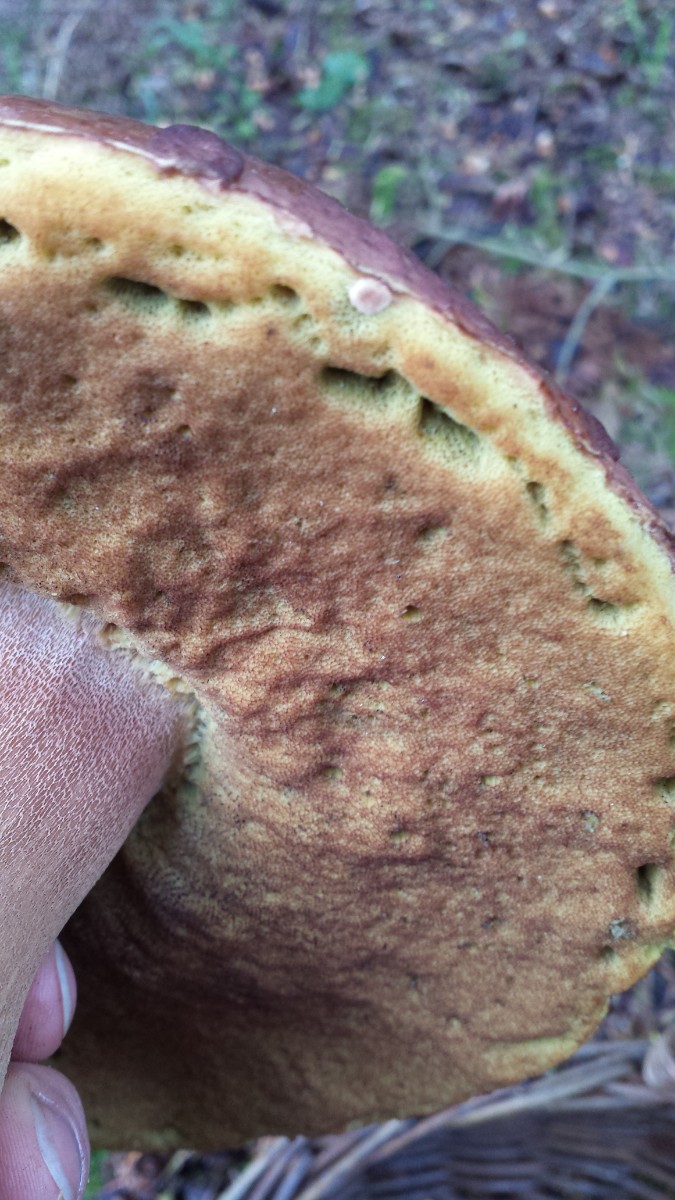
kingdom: Fungi
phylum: Basidiomycota
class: Agaricomycetes
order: Boletales
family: Boletaceae
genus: Boletus
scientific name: Boletus pinophilus
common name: rødbrun rørhat
